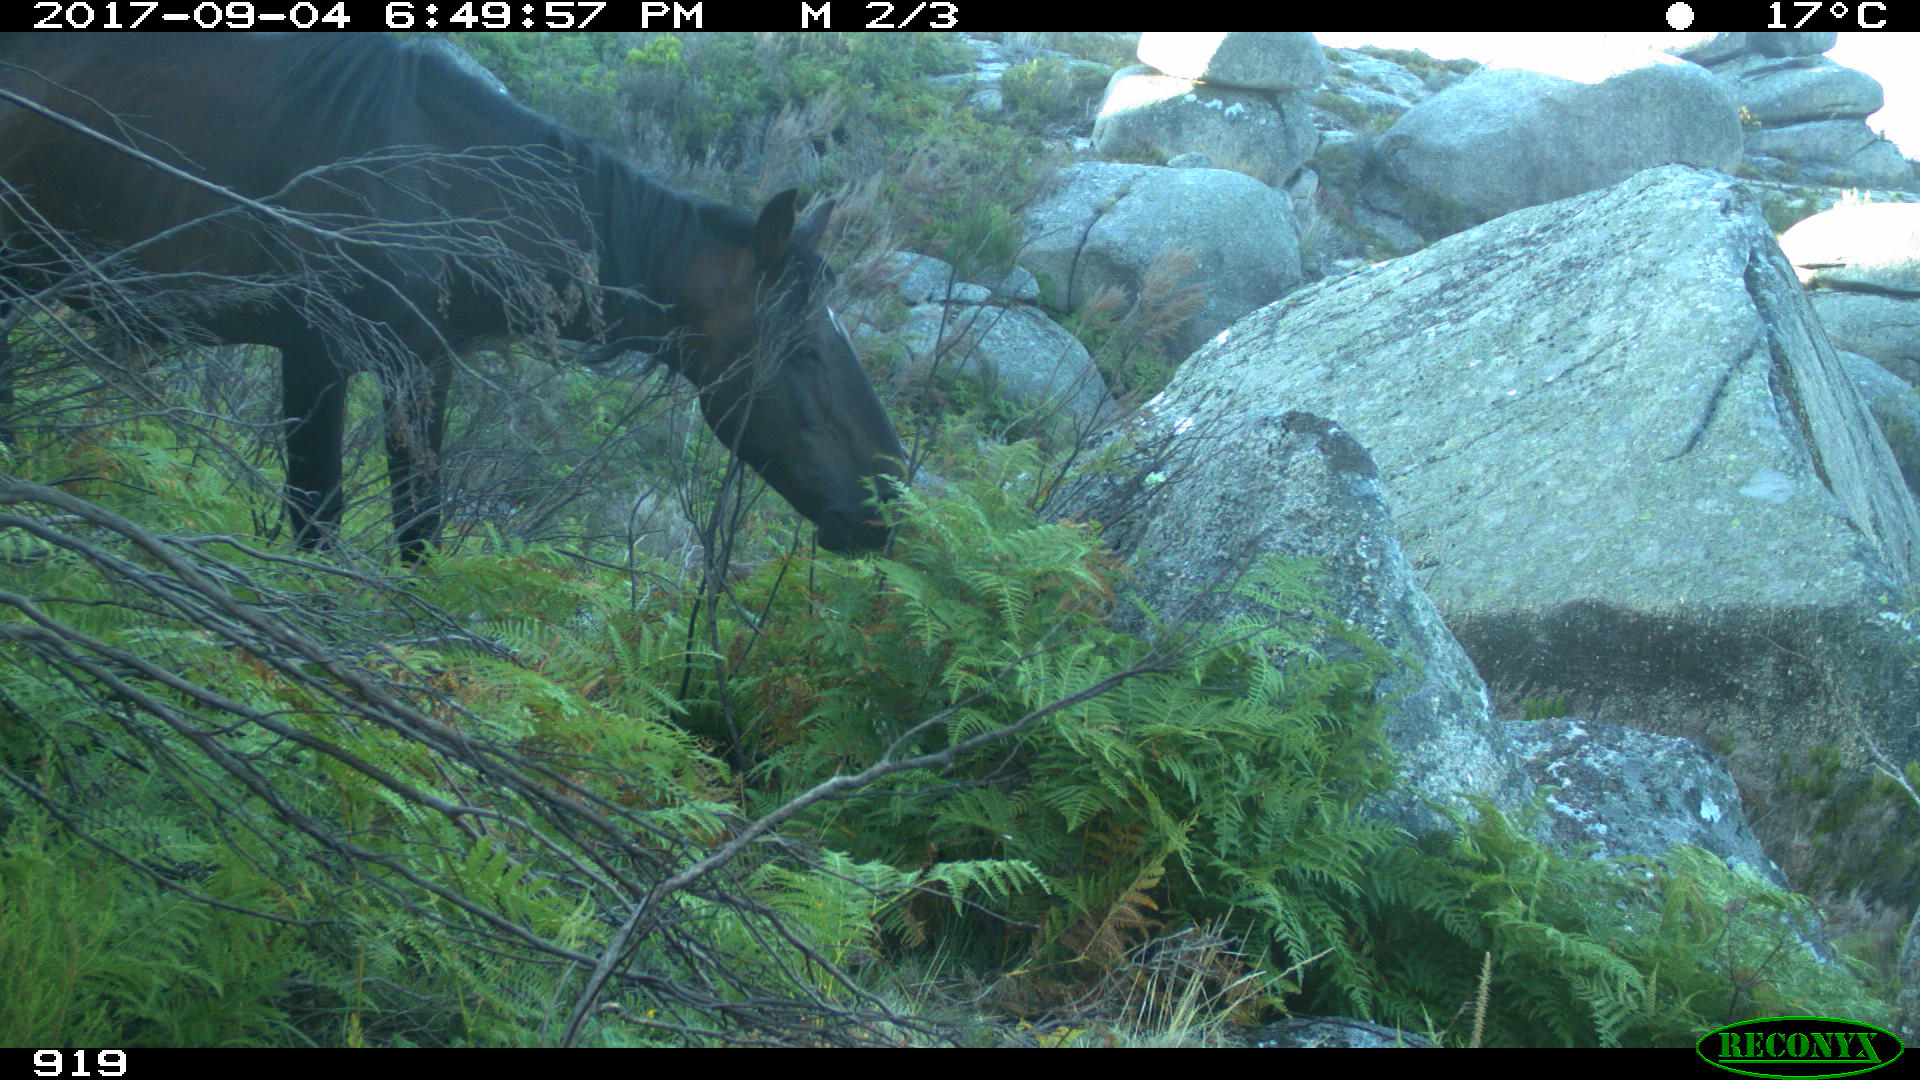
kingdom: Animalia
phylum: Chordata
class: Mammalia
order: Perissodactyla
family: Equidae
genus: Equus
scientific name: Equus caballus
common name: Horse
